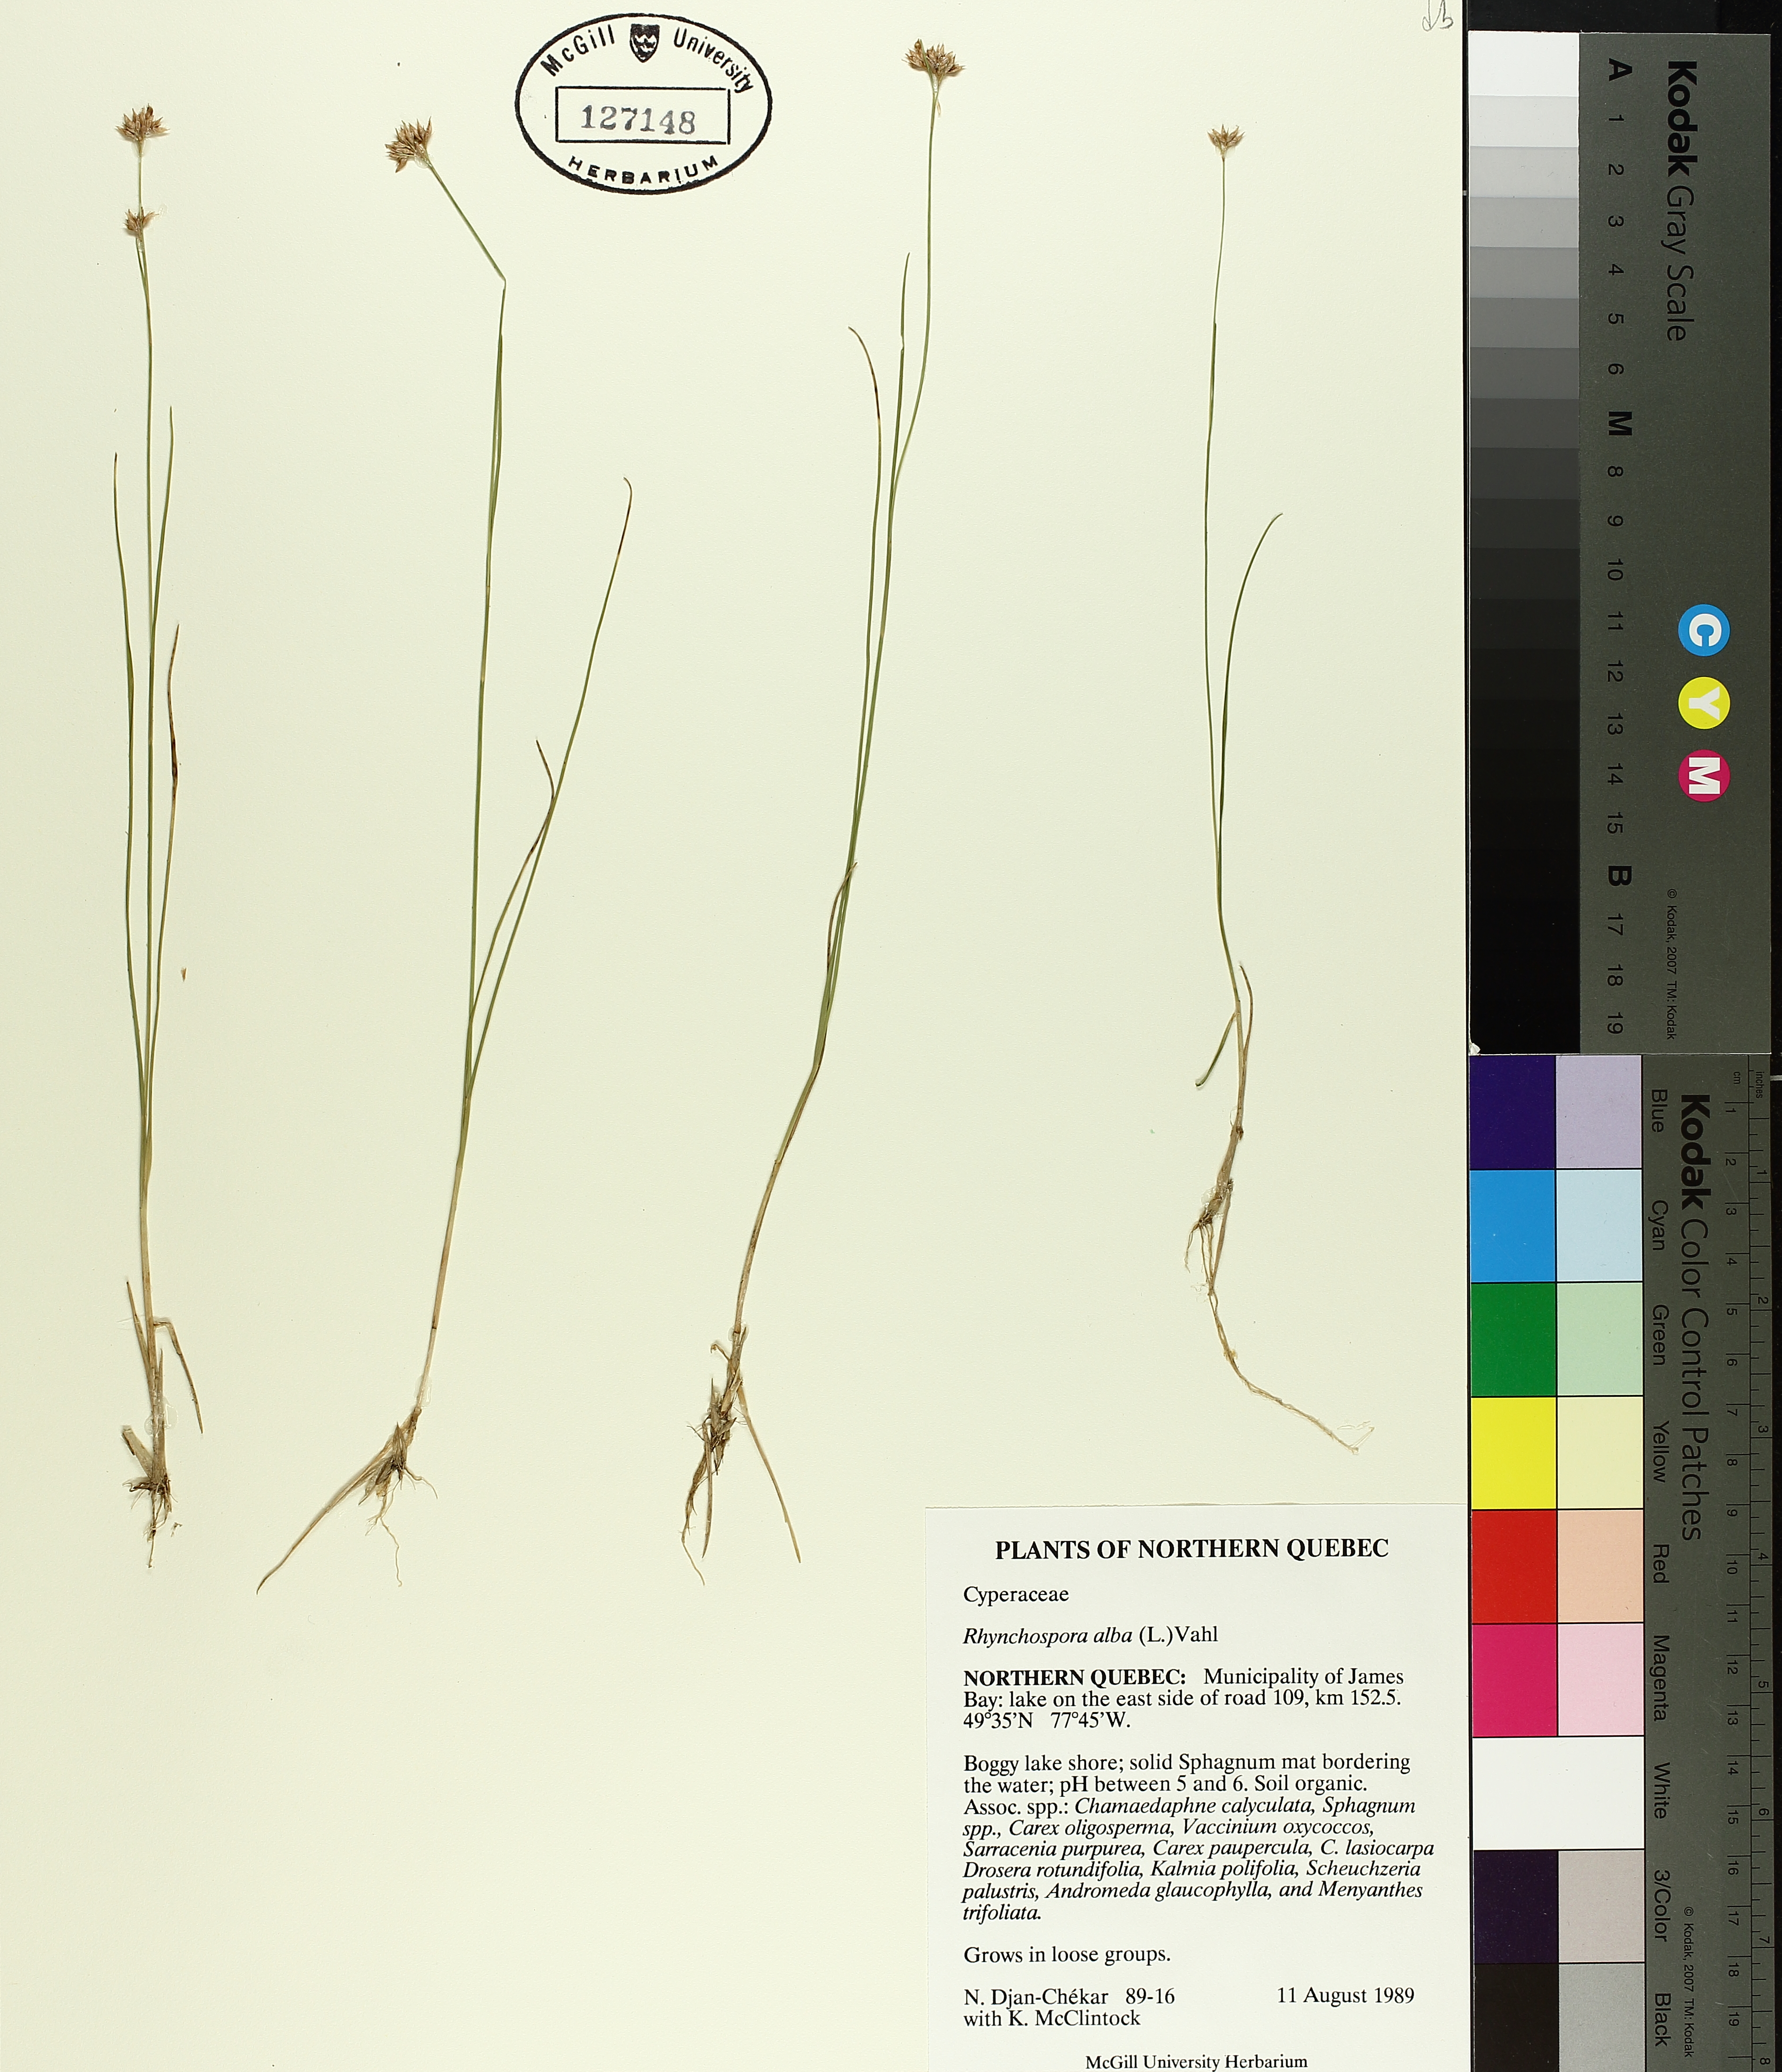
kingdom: Plantae
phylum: Tracheophyta
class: Liliopsida
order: Poales
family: Cyperaceae
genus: Rhynchospora
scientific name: Rhynchospora alba
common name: White beak-sedge
